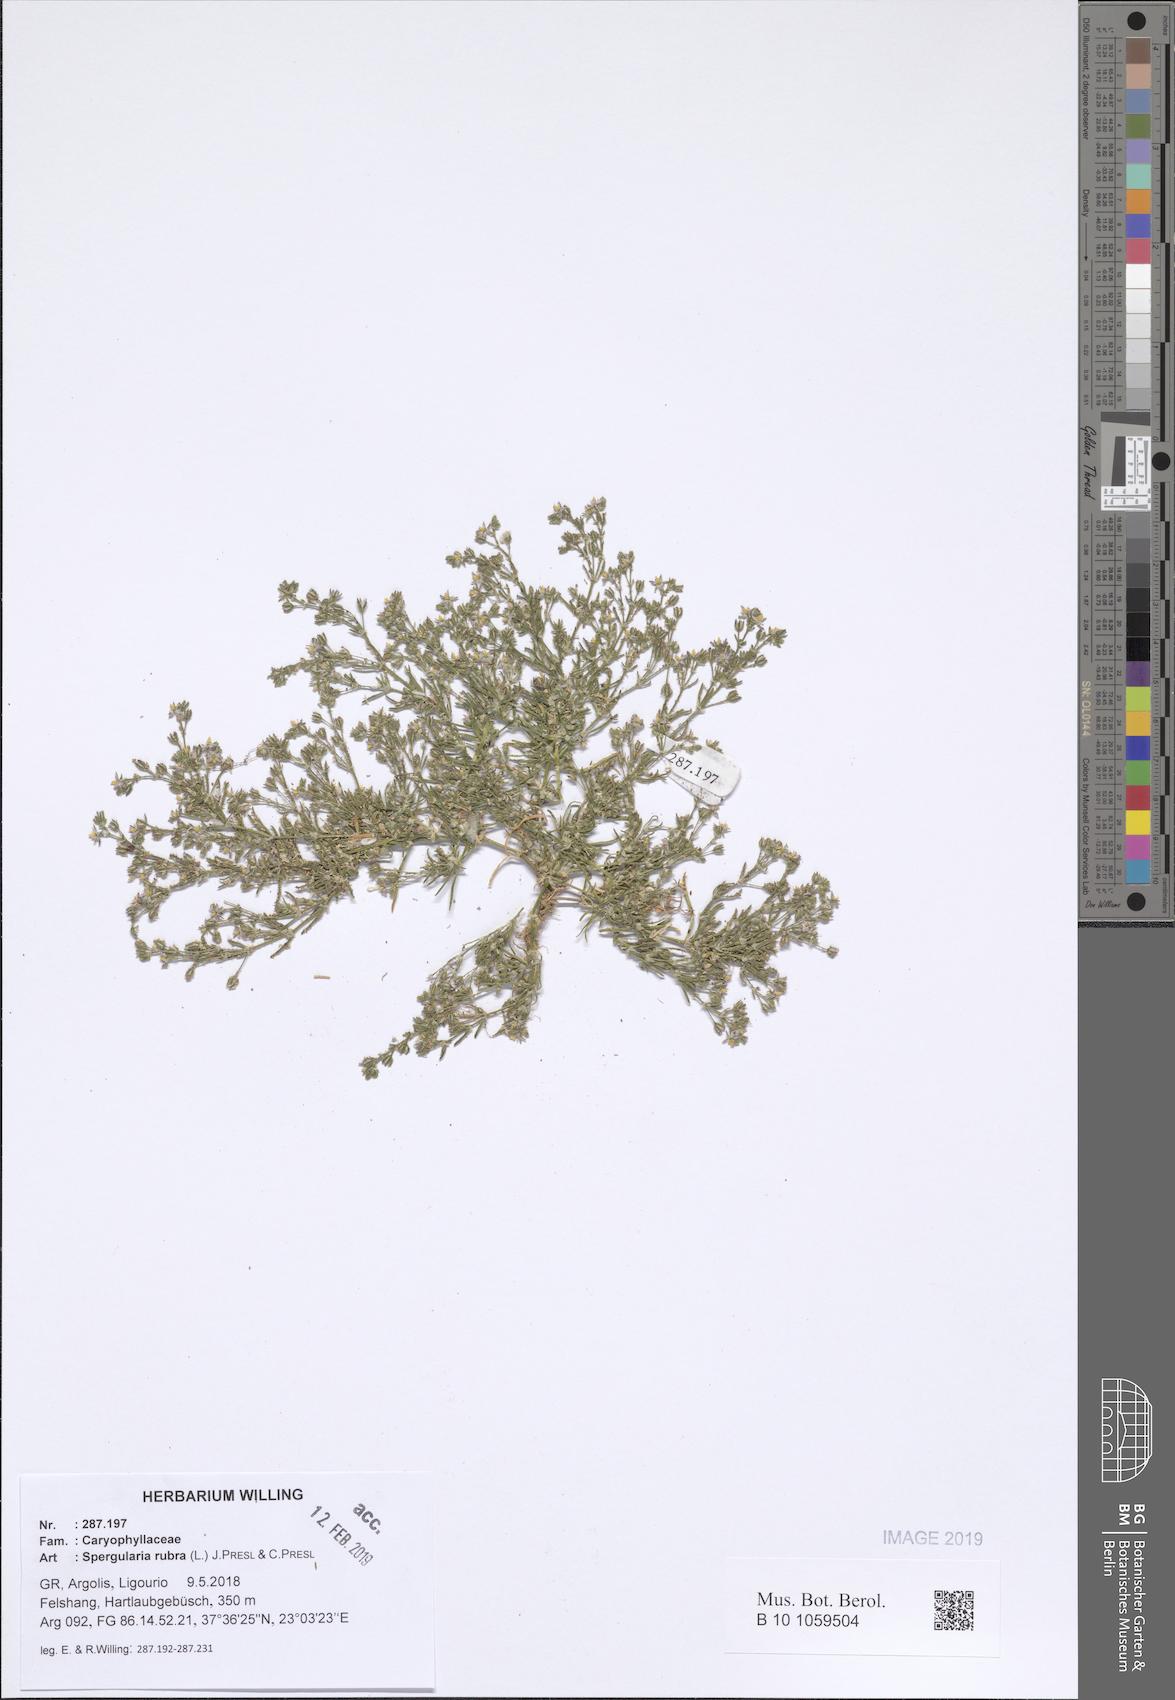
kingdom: Plantae
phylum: Tracheophyta
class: Magnoliopsida
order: Caryophyllales
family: Caryophyllaceae
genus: Spergularia
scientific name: Spergularia rubra
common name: Red sand-spurrey
